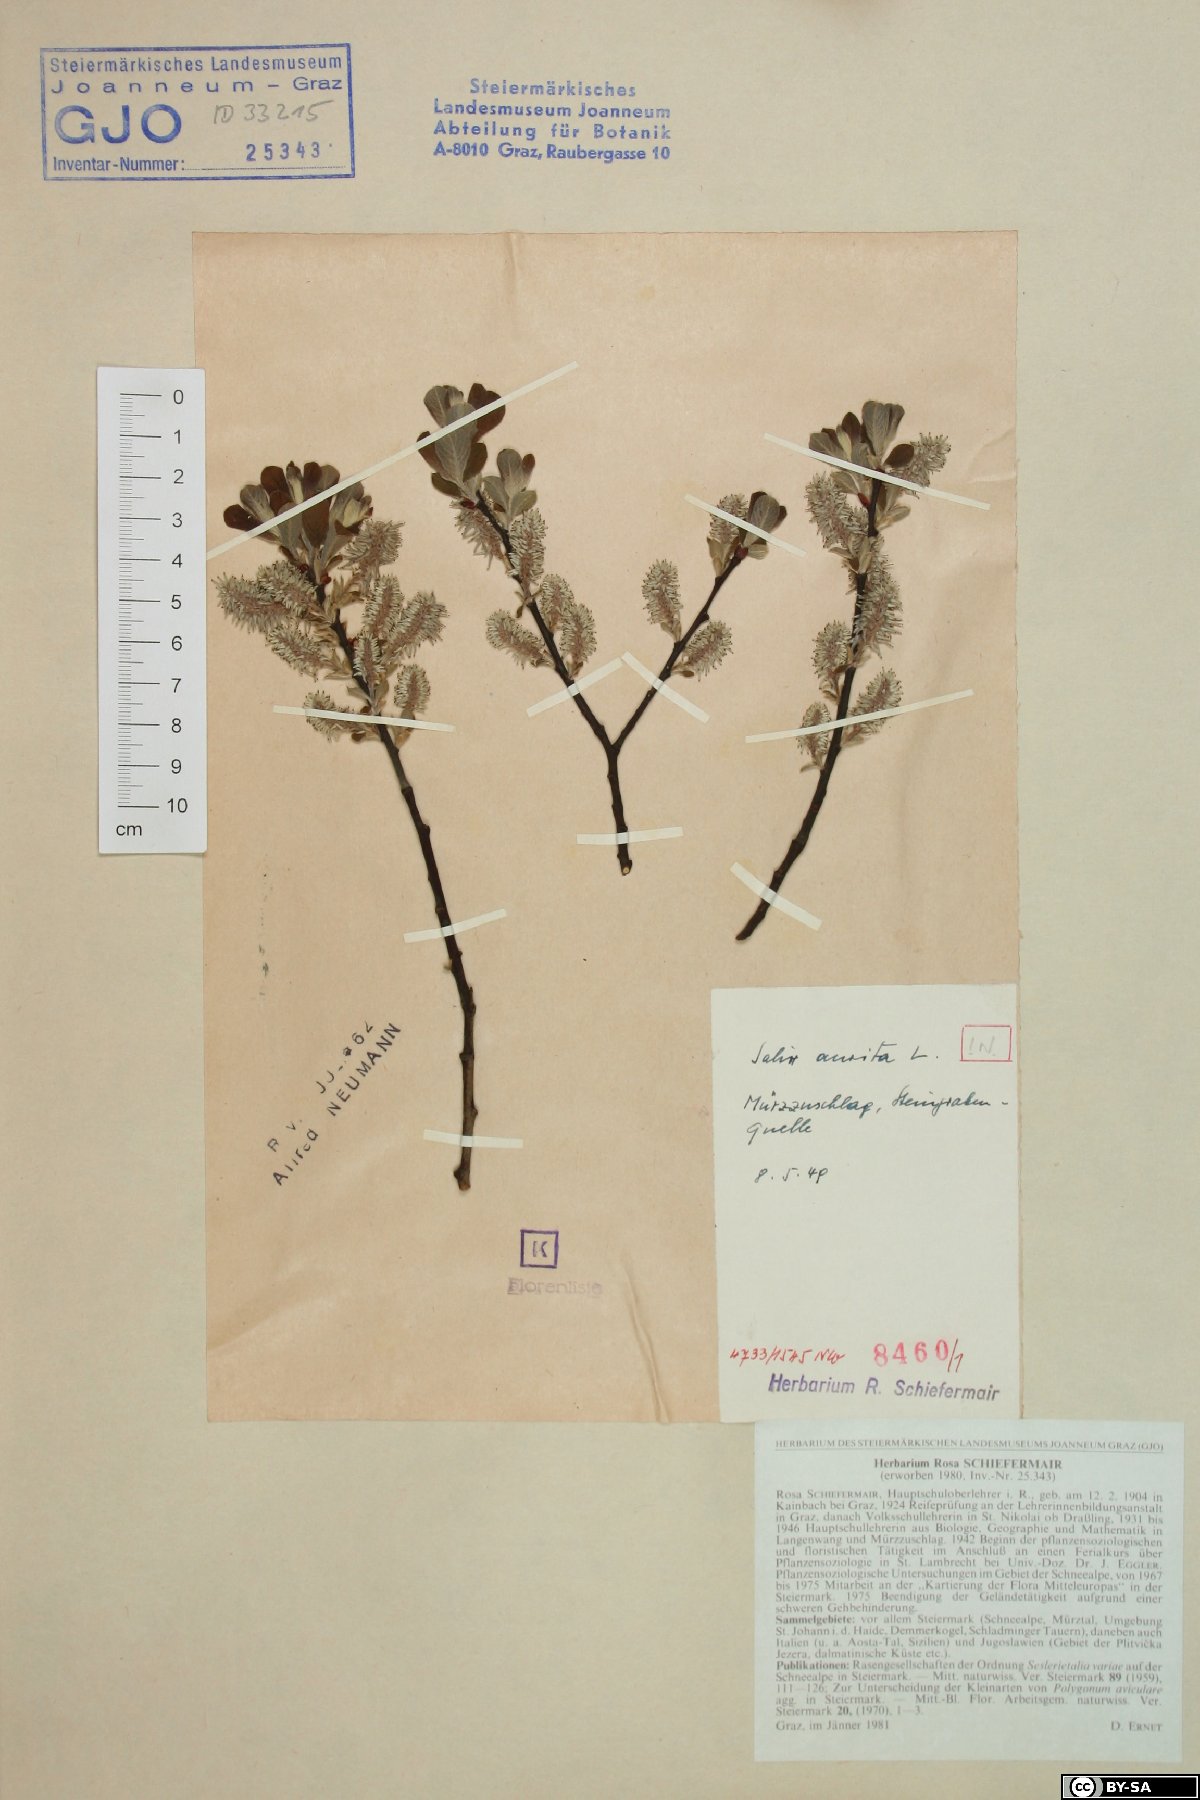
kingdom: Plantae
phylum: Tracheophyta
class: Magnoliopsida
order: Malpighiales
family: Salicaceae
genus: Salix
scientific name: Salix aurita
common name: Eared willow
